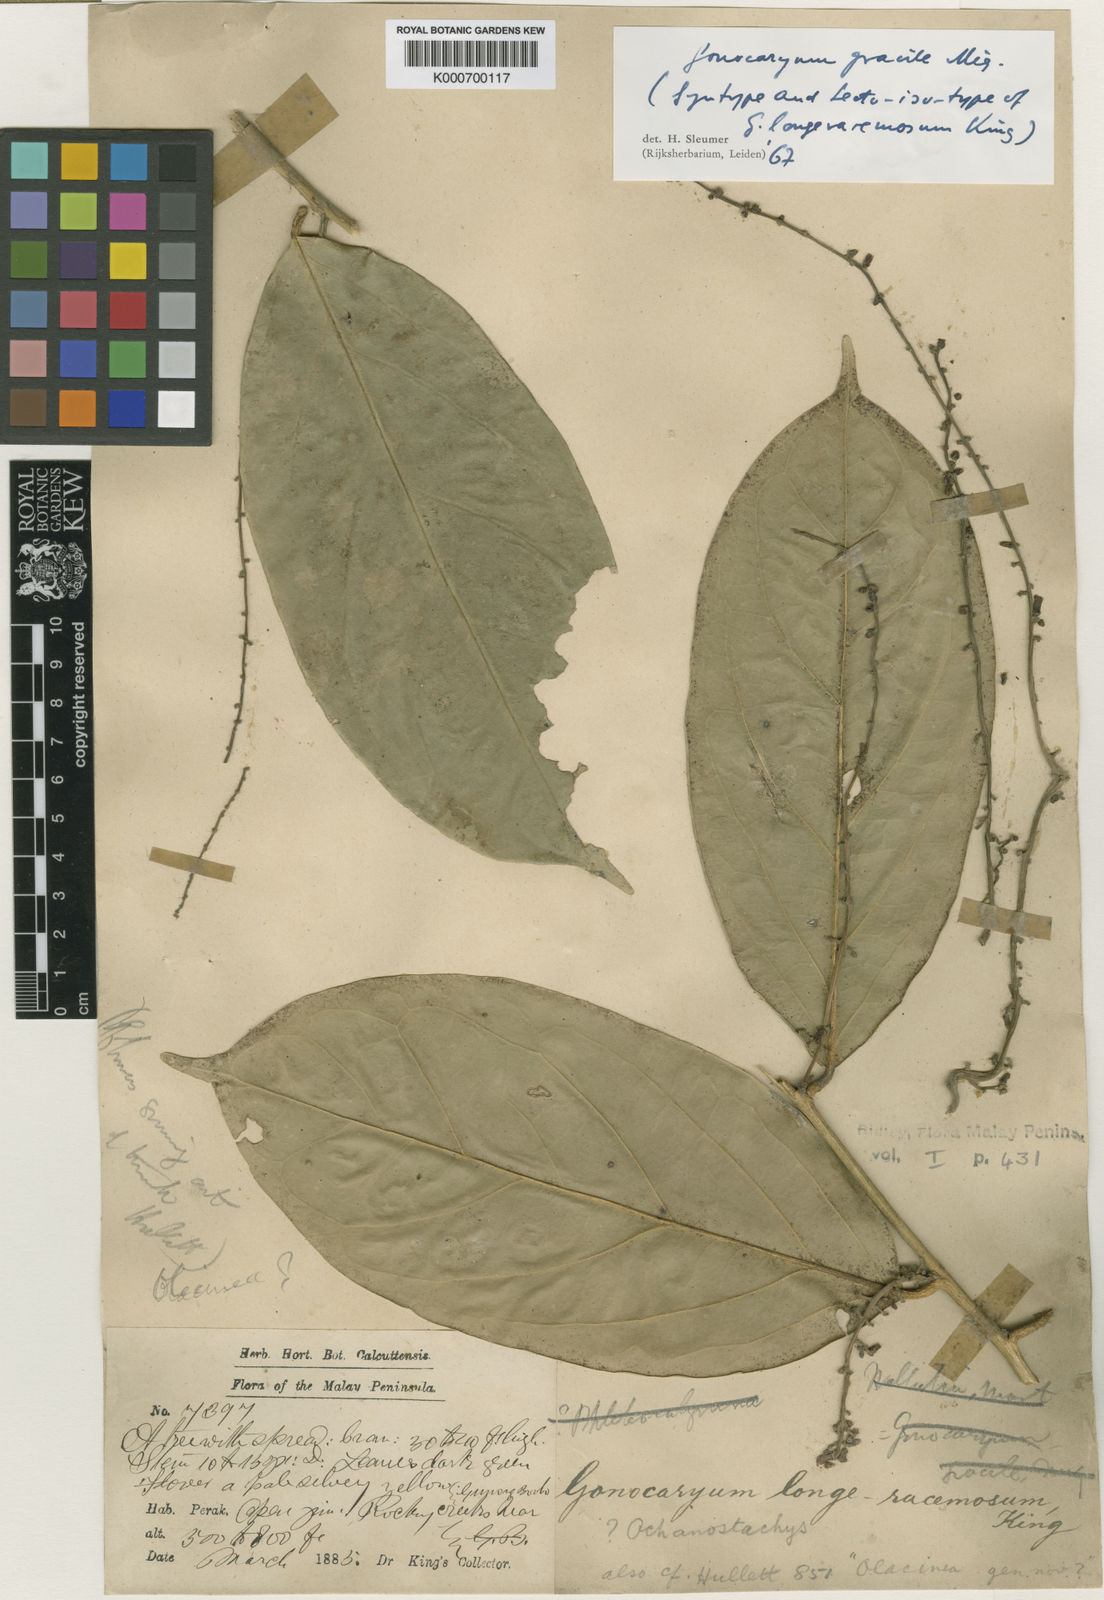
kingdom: Plantae
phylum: Tracheophyta
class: Magnoliopsida
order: Cardiopteridales
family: Cardiopteridaceae
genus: Gonocaryum
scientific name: Gonocaryum gracile
